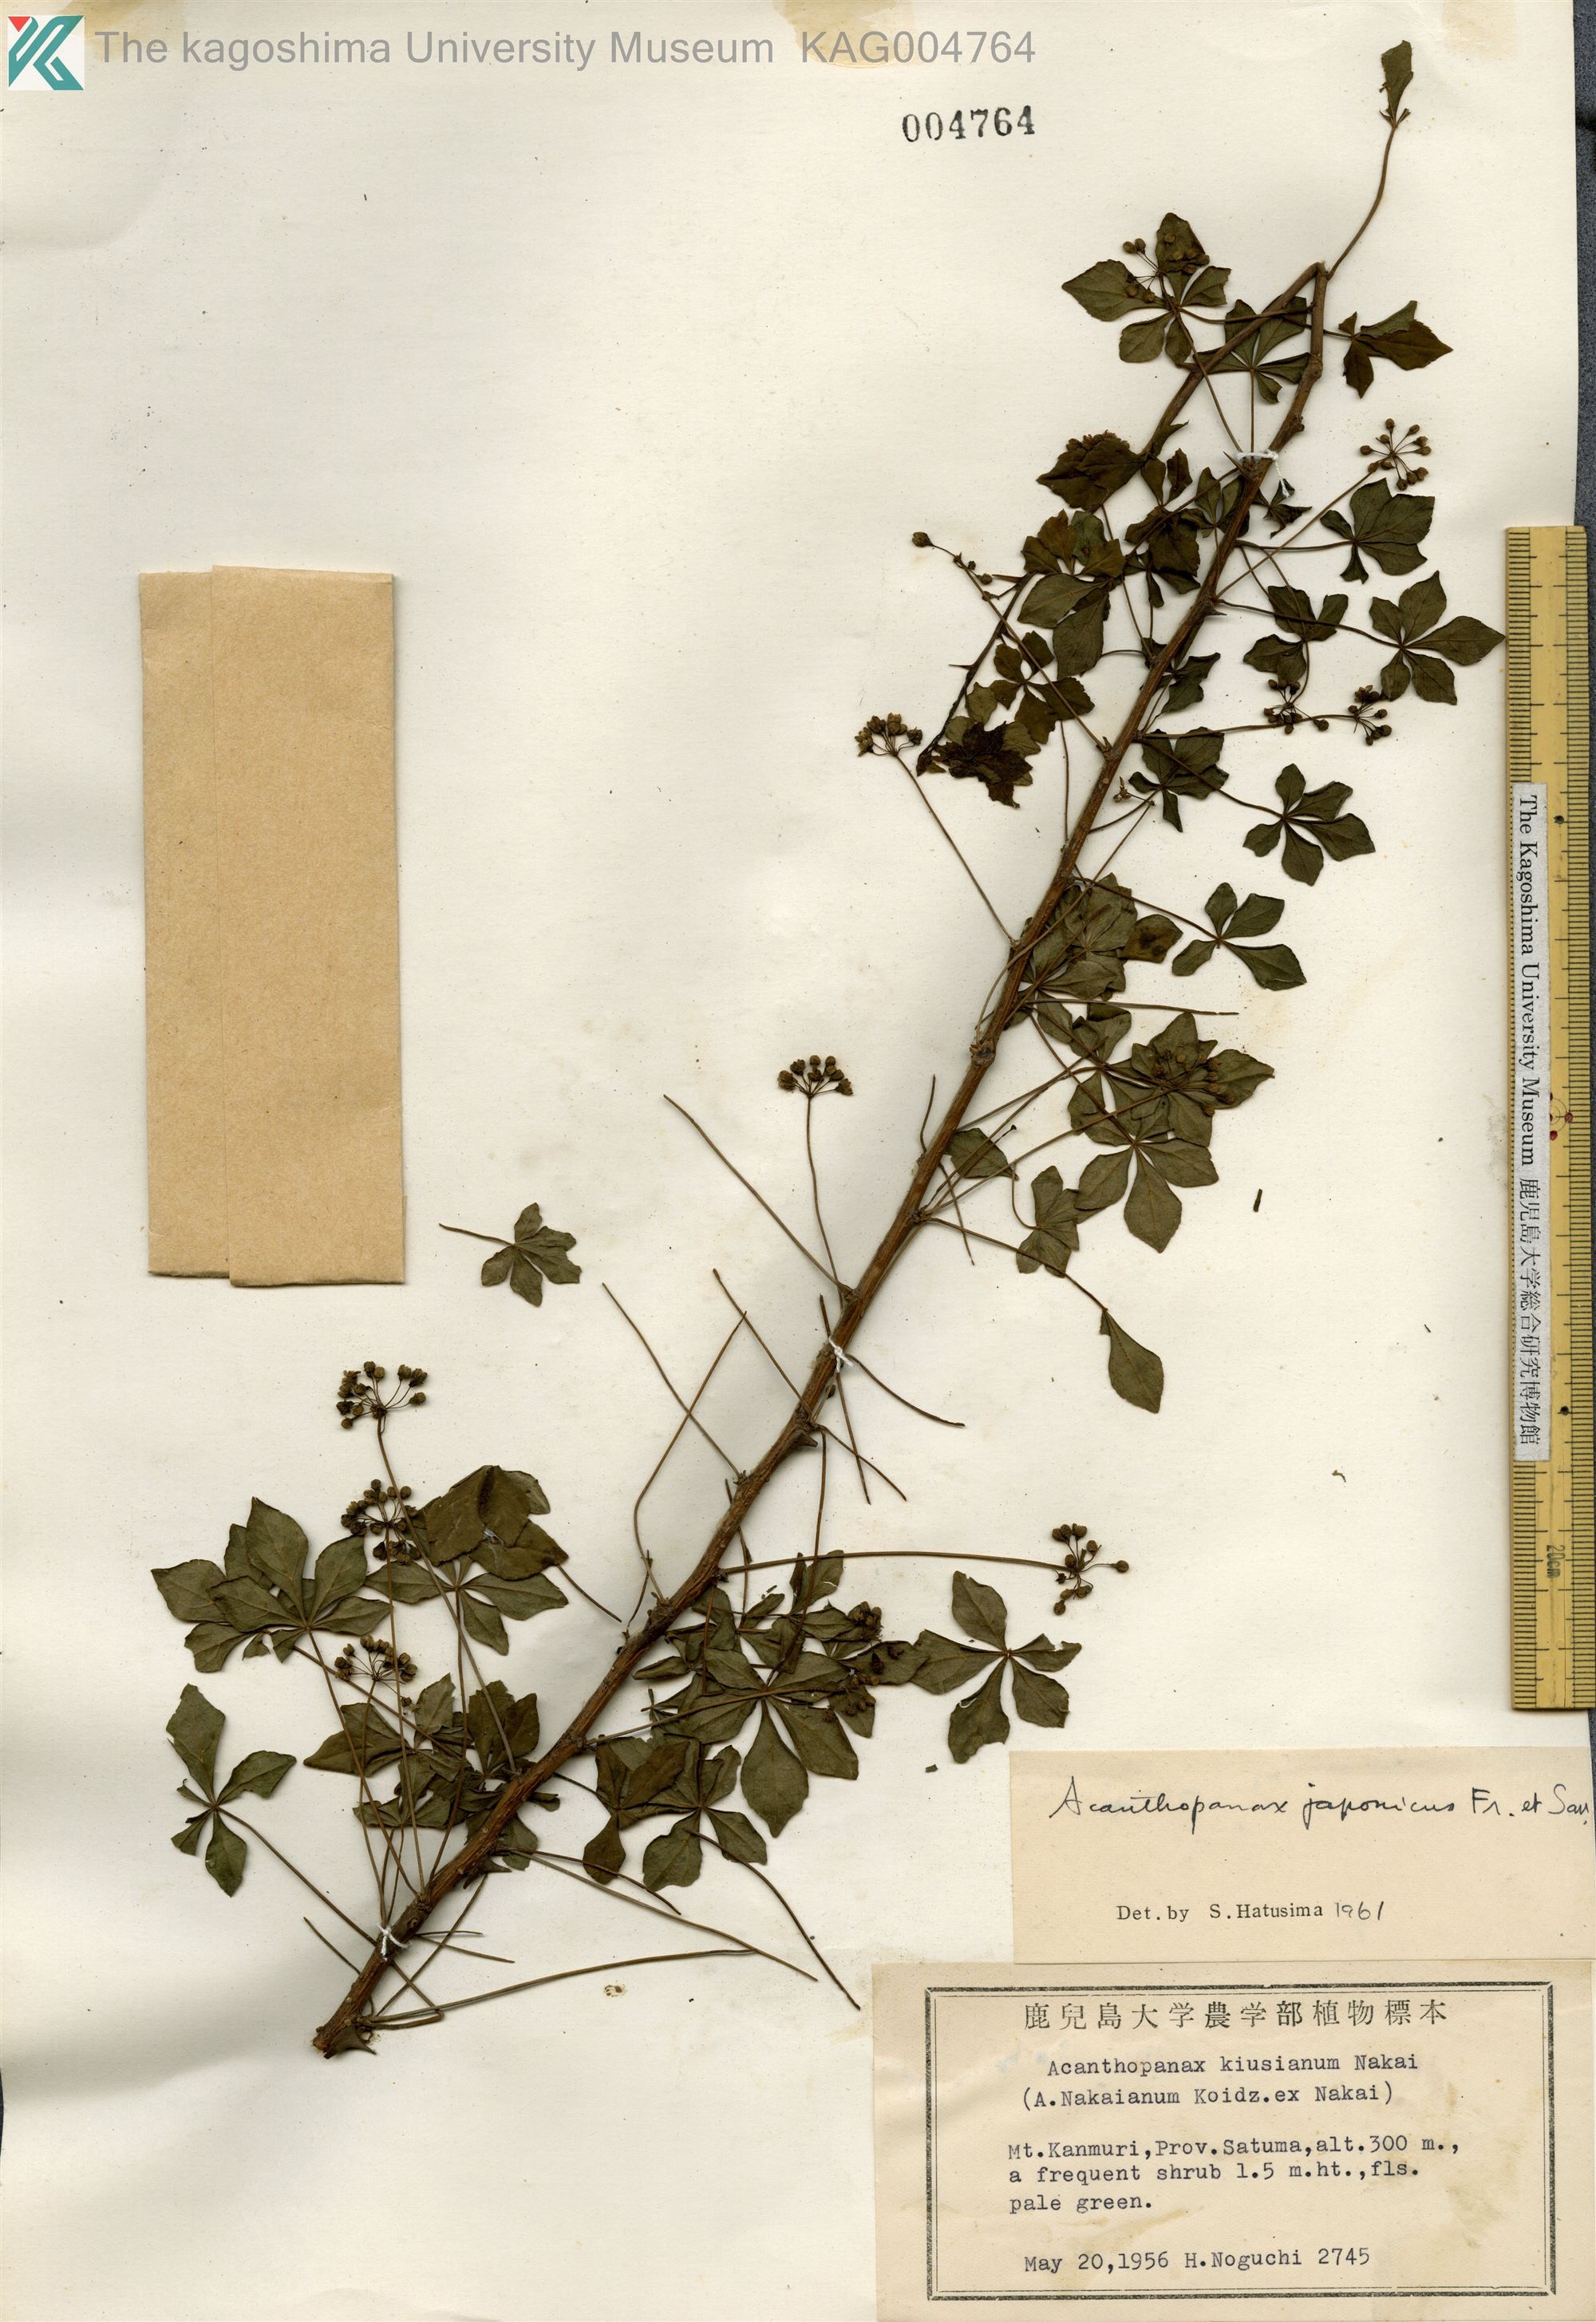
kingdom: Plantae
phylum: Tracheophyta
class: Magnoliopsida
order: Apiales
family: Araliaceae
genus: Eleutherococcus
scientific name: Eleutherococcus japonicus
